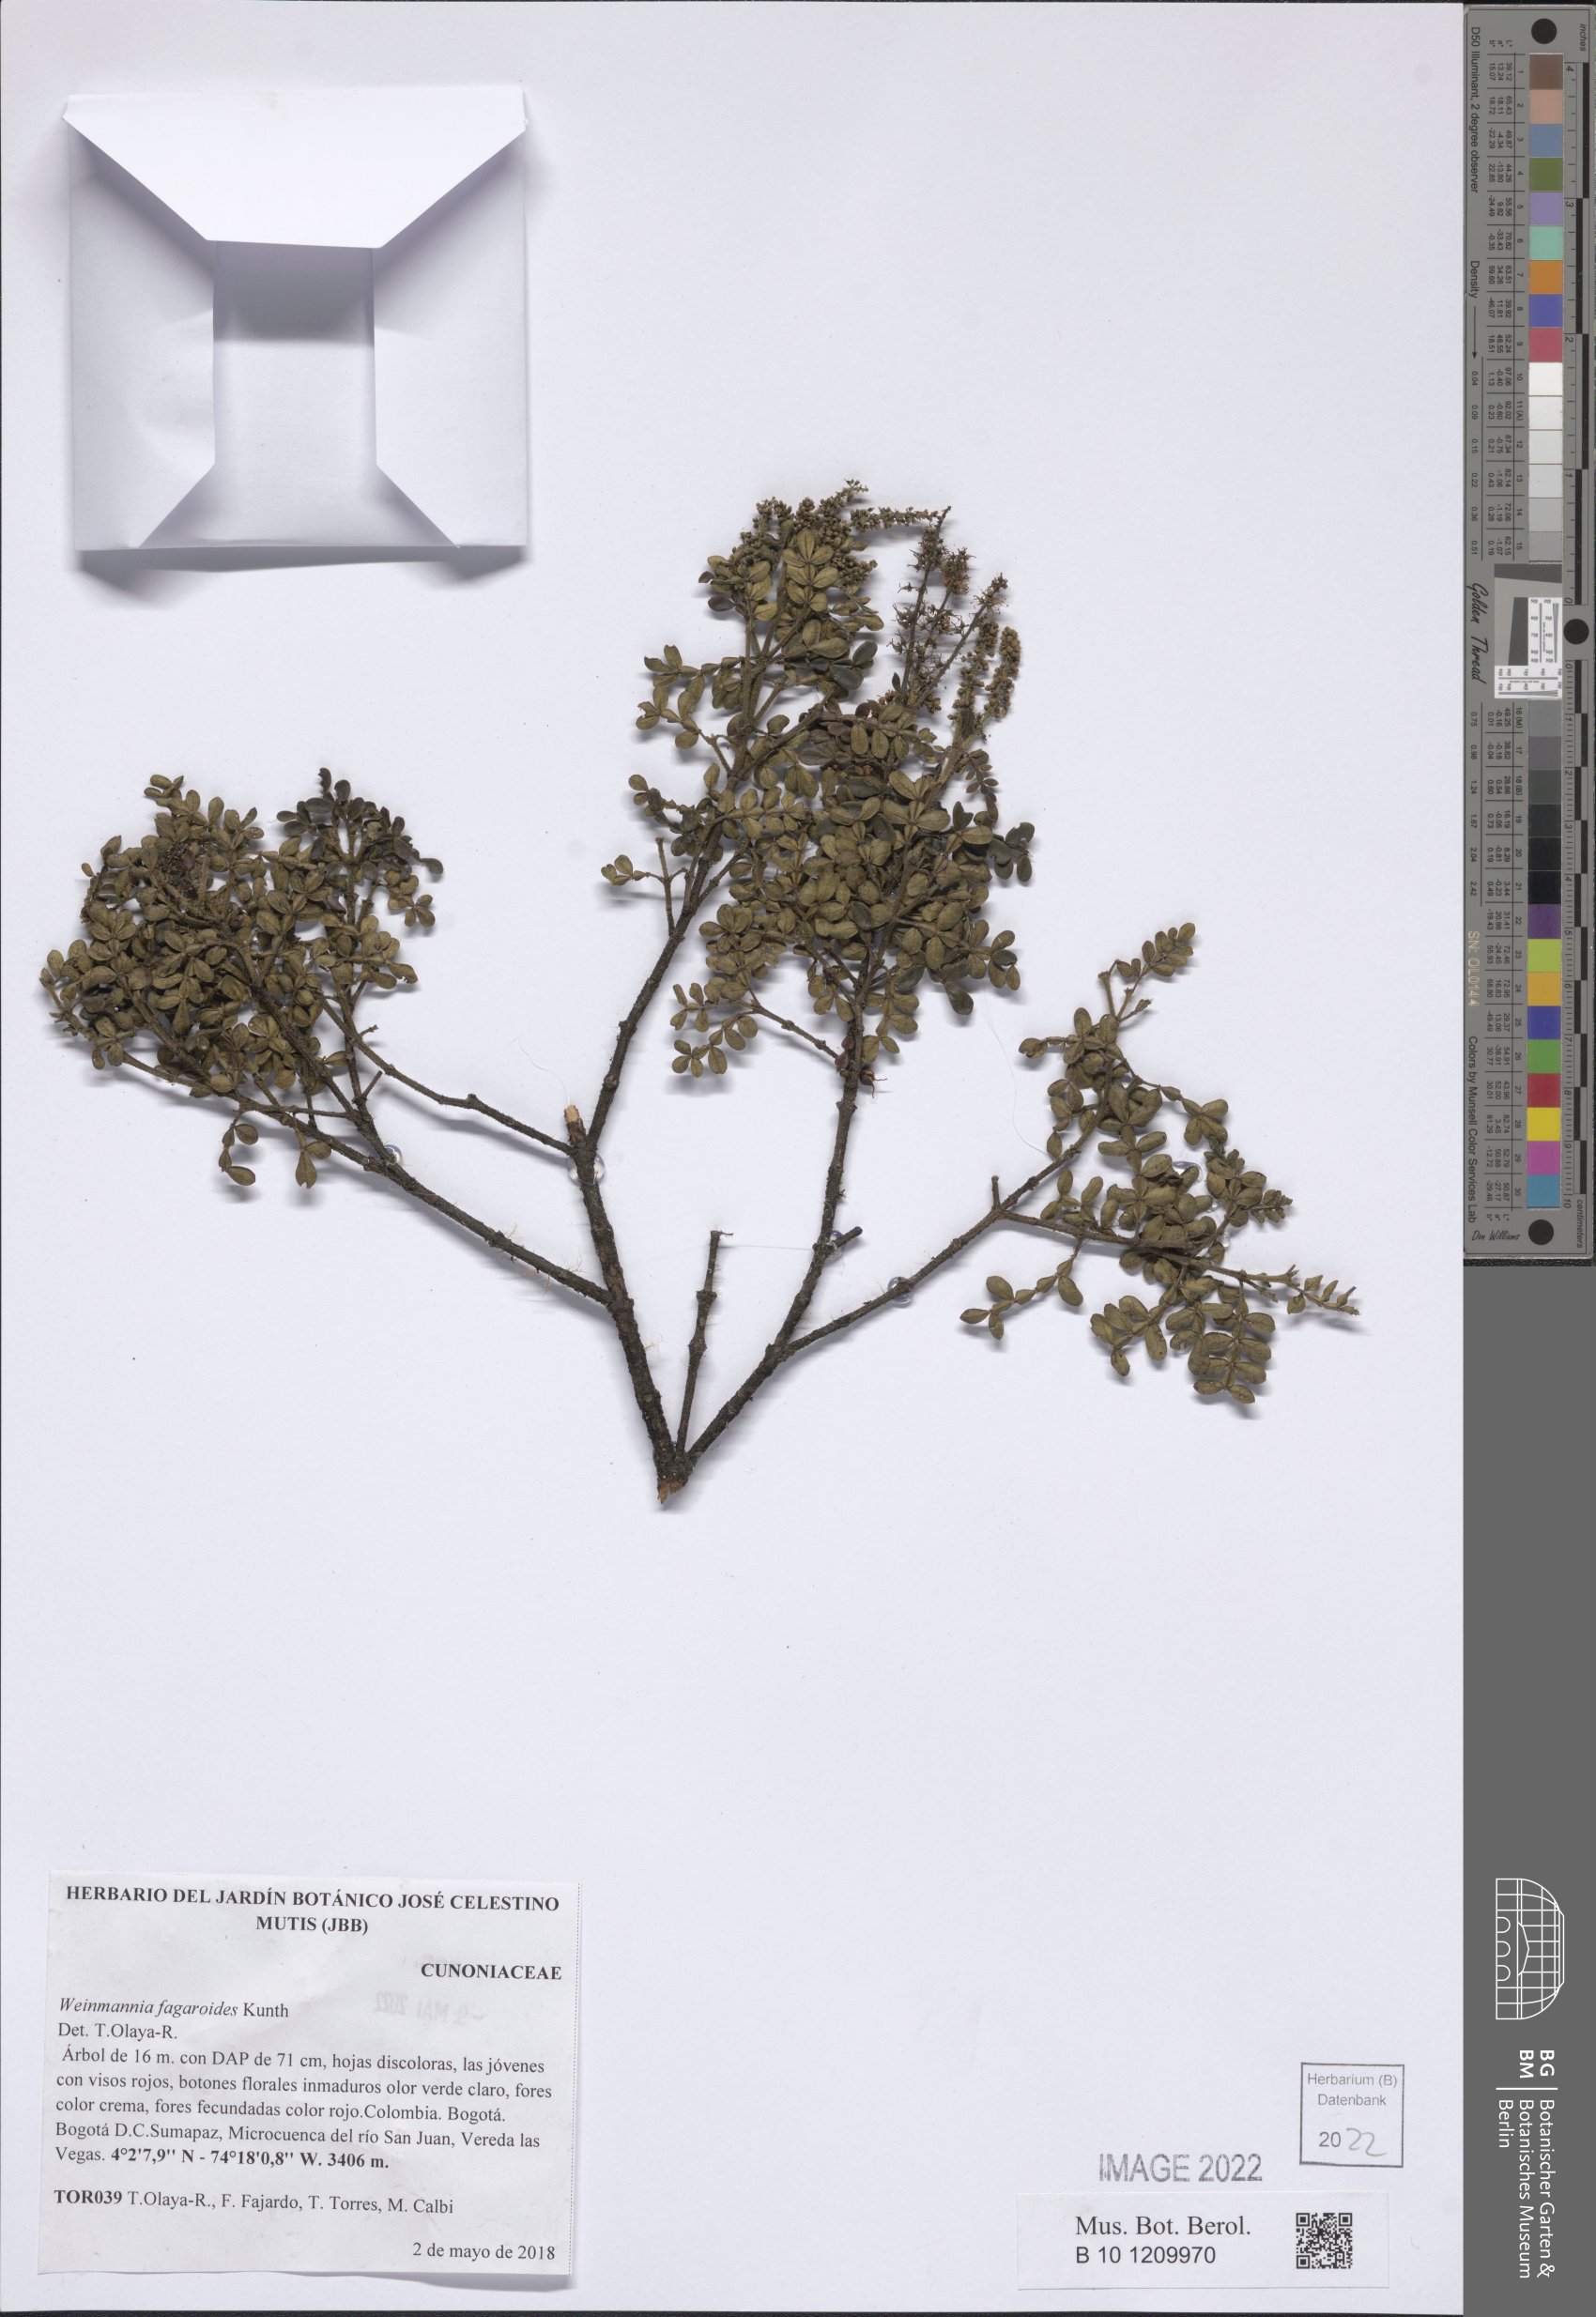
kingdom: Plantae
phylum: Tracheophyta
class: Magnoliopsida
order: Oxalidales
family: Cunoniaceae
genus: Weinmannia
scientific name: Weinmannia fagaroides
